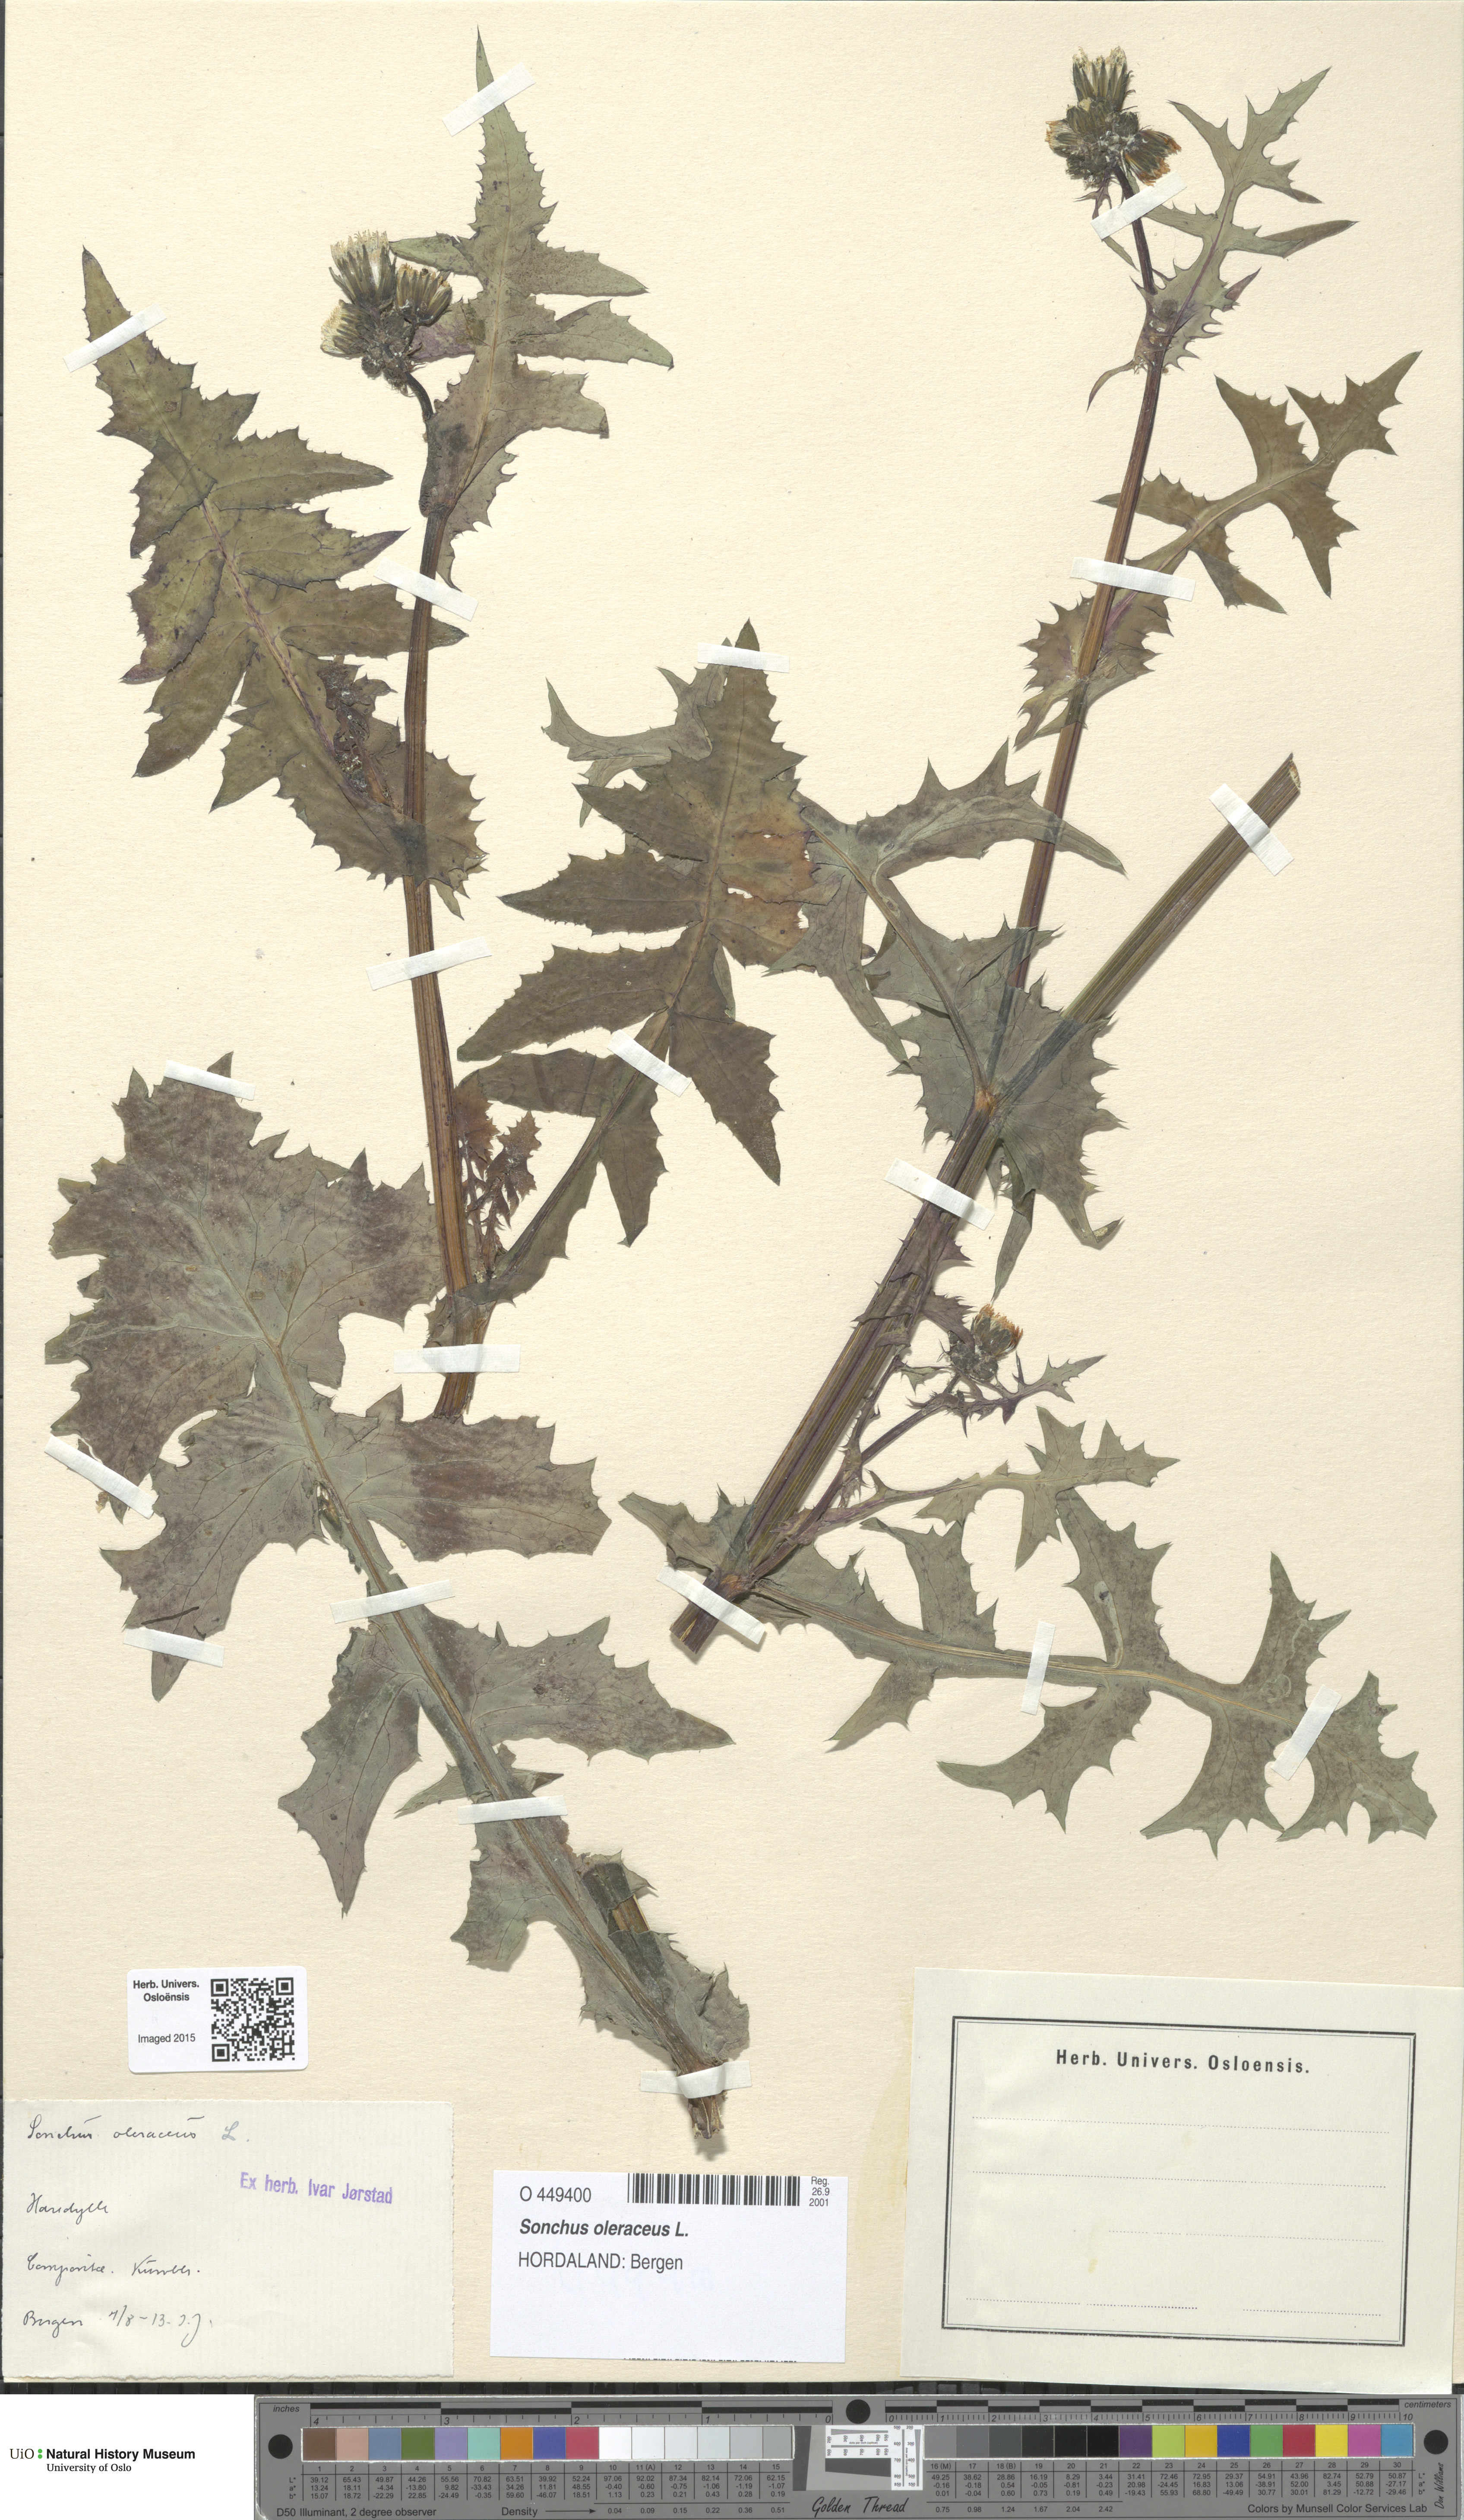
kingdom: Plantae
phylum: Tracheophyta
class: Magnoliopsida
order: Asterales
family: Asteraceae
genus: Sonchus
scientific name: Sonchus oleraceus
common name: Common sowthistle
